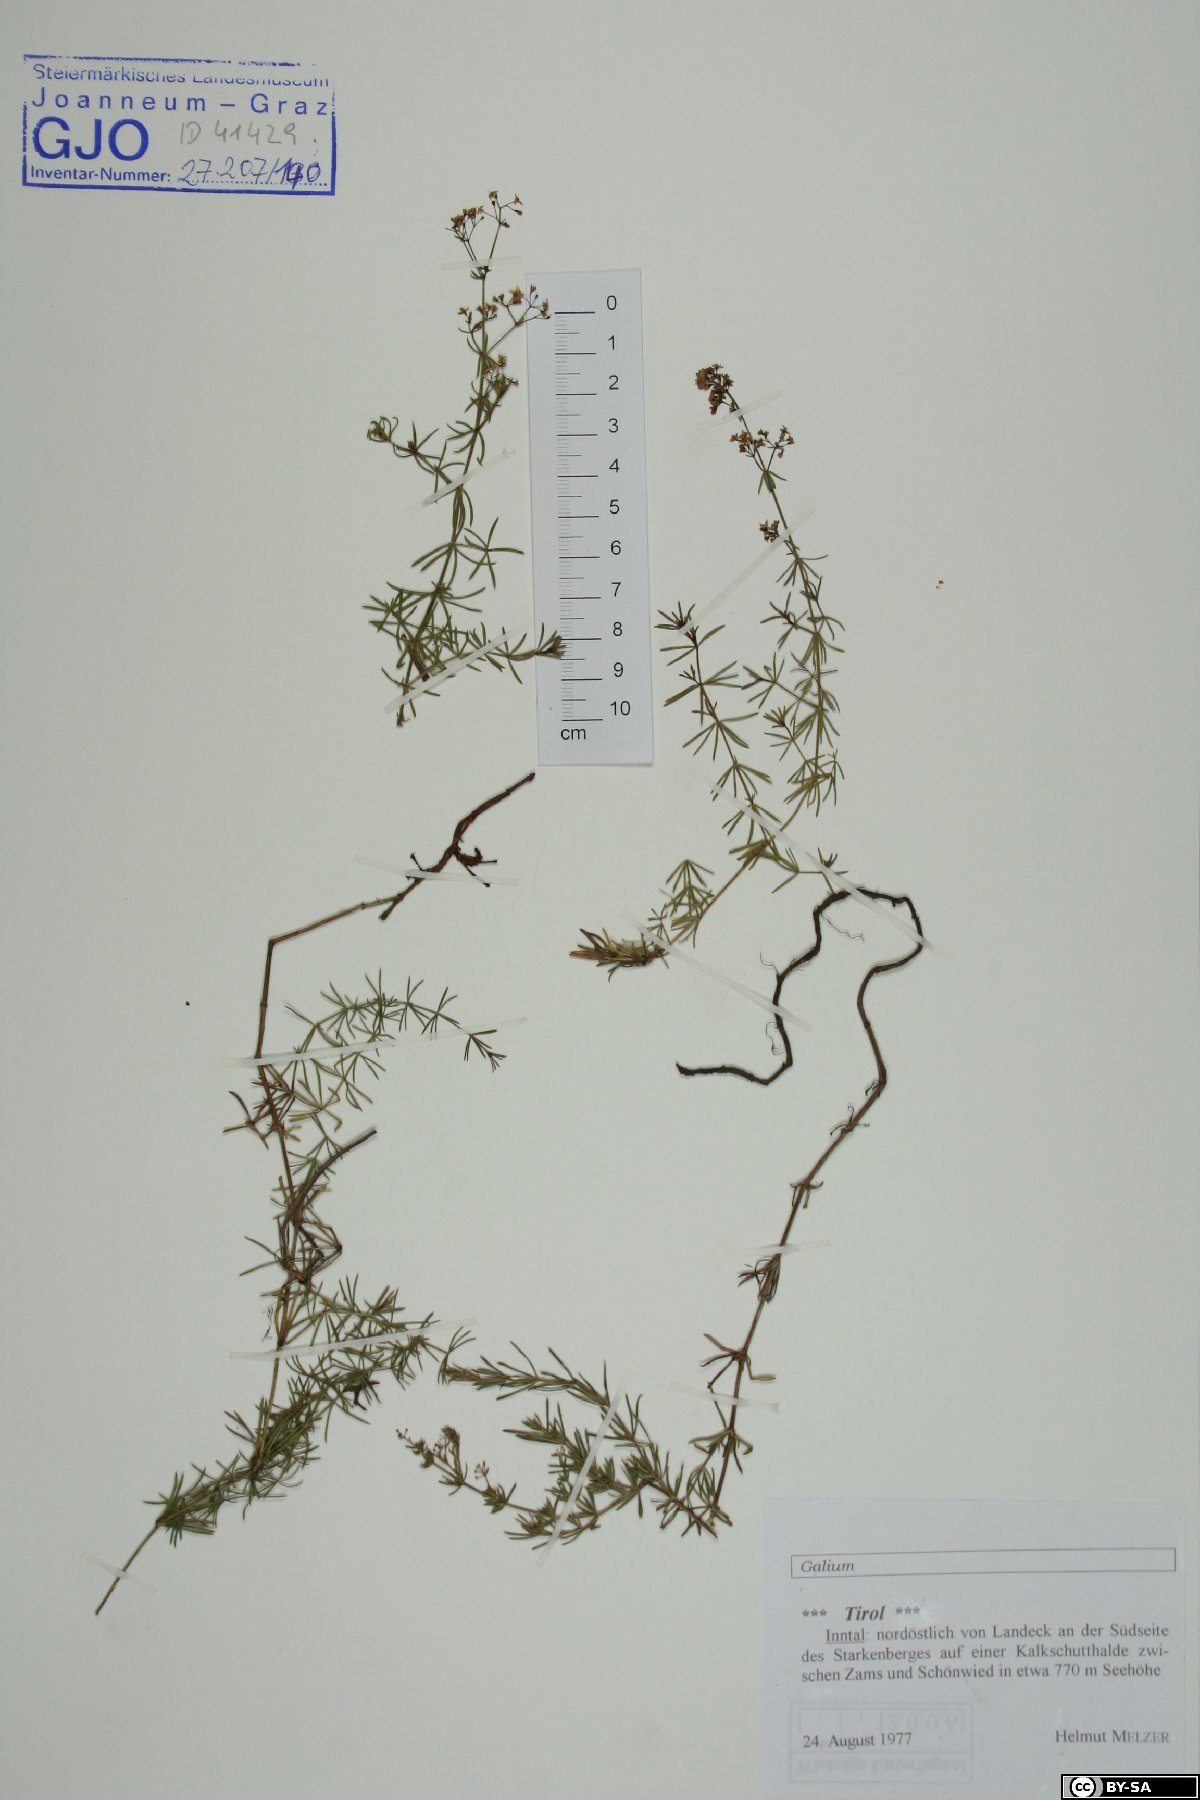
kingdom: Plantae
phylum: Tracheophyta
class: Magnoliopsida
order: Gentianales
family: Rubiaceae
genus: Galium
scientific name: Galium
